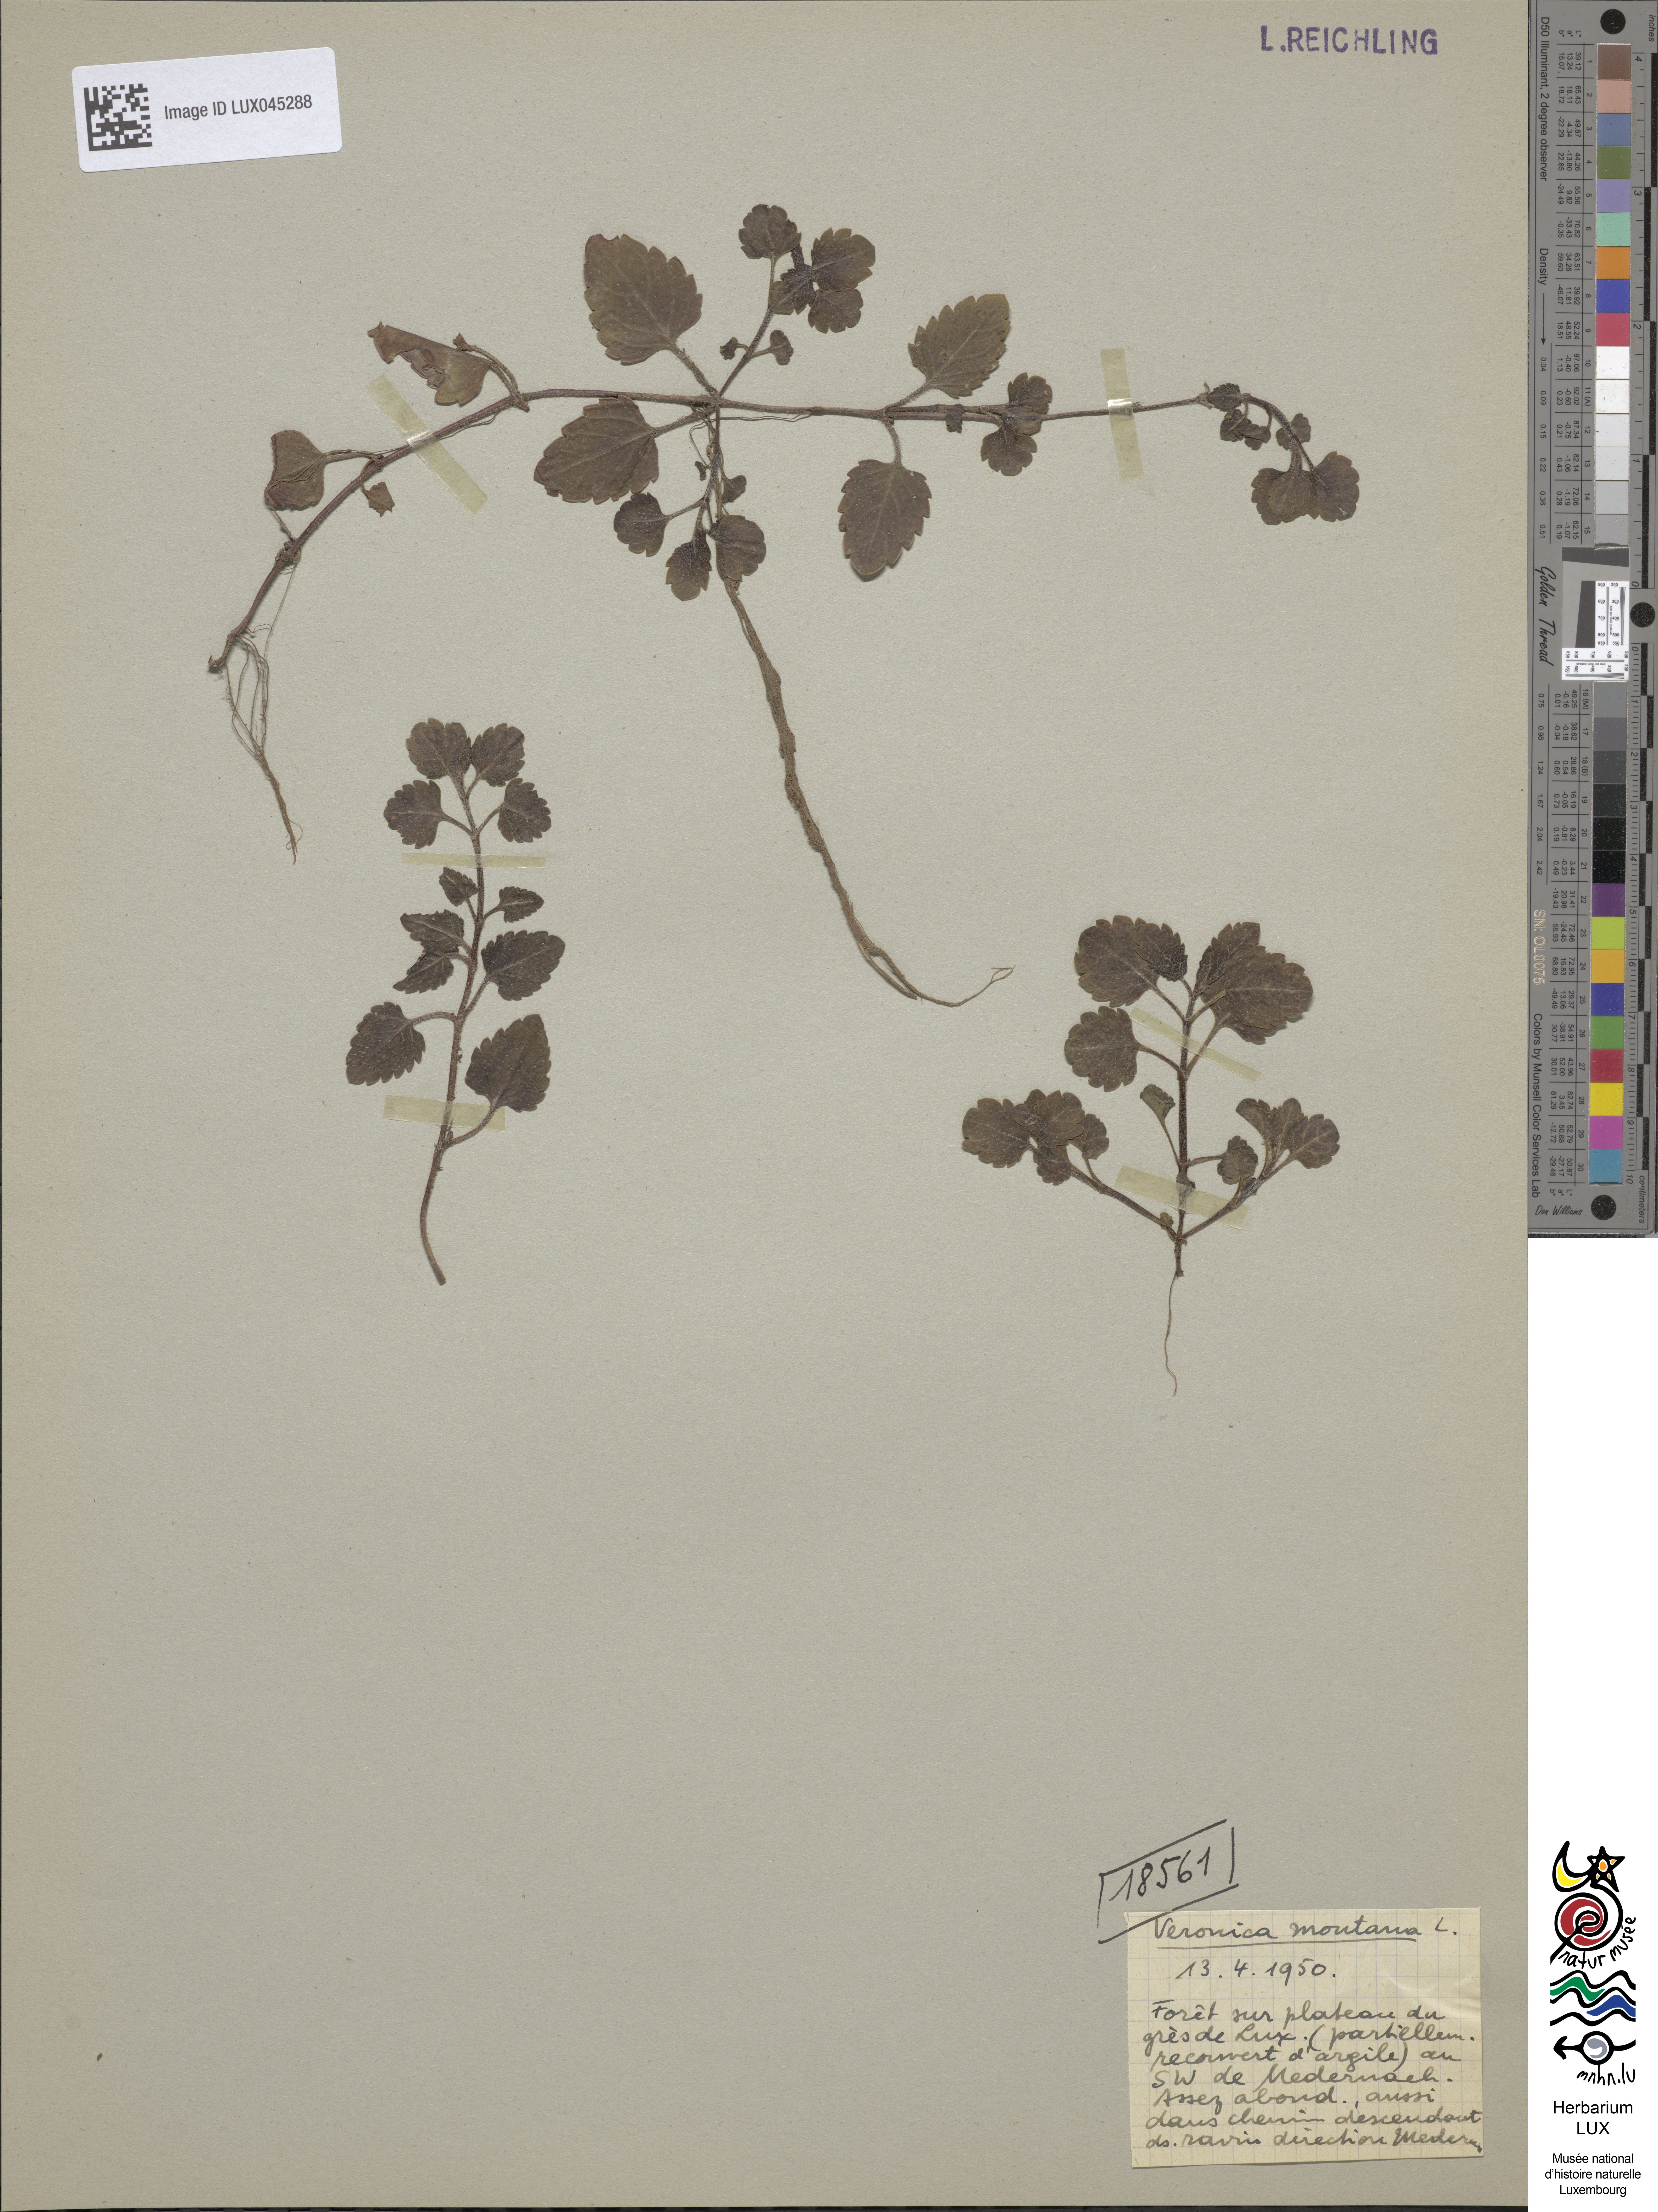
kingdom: Plantae
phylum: Tracheophyta
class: Magnoliopsida
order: Lamiales
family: Plantaginaceae
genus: Veronica
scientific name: Veronica montana
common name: Wood speedwell
